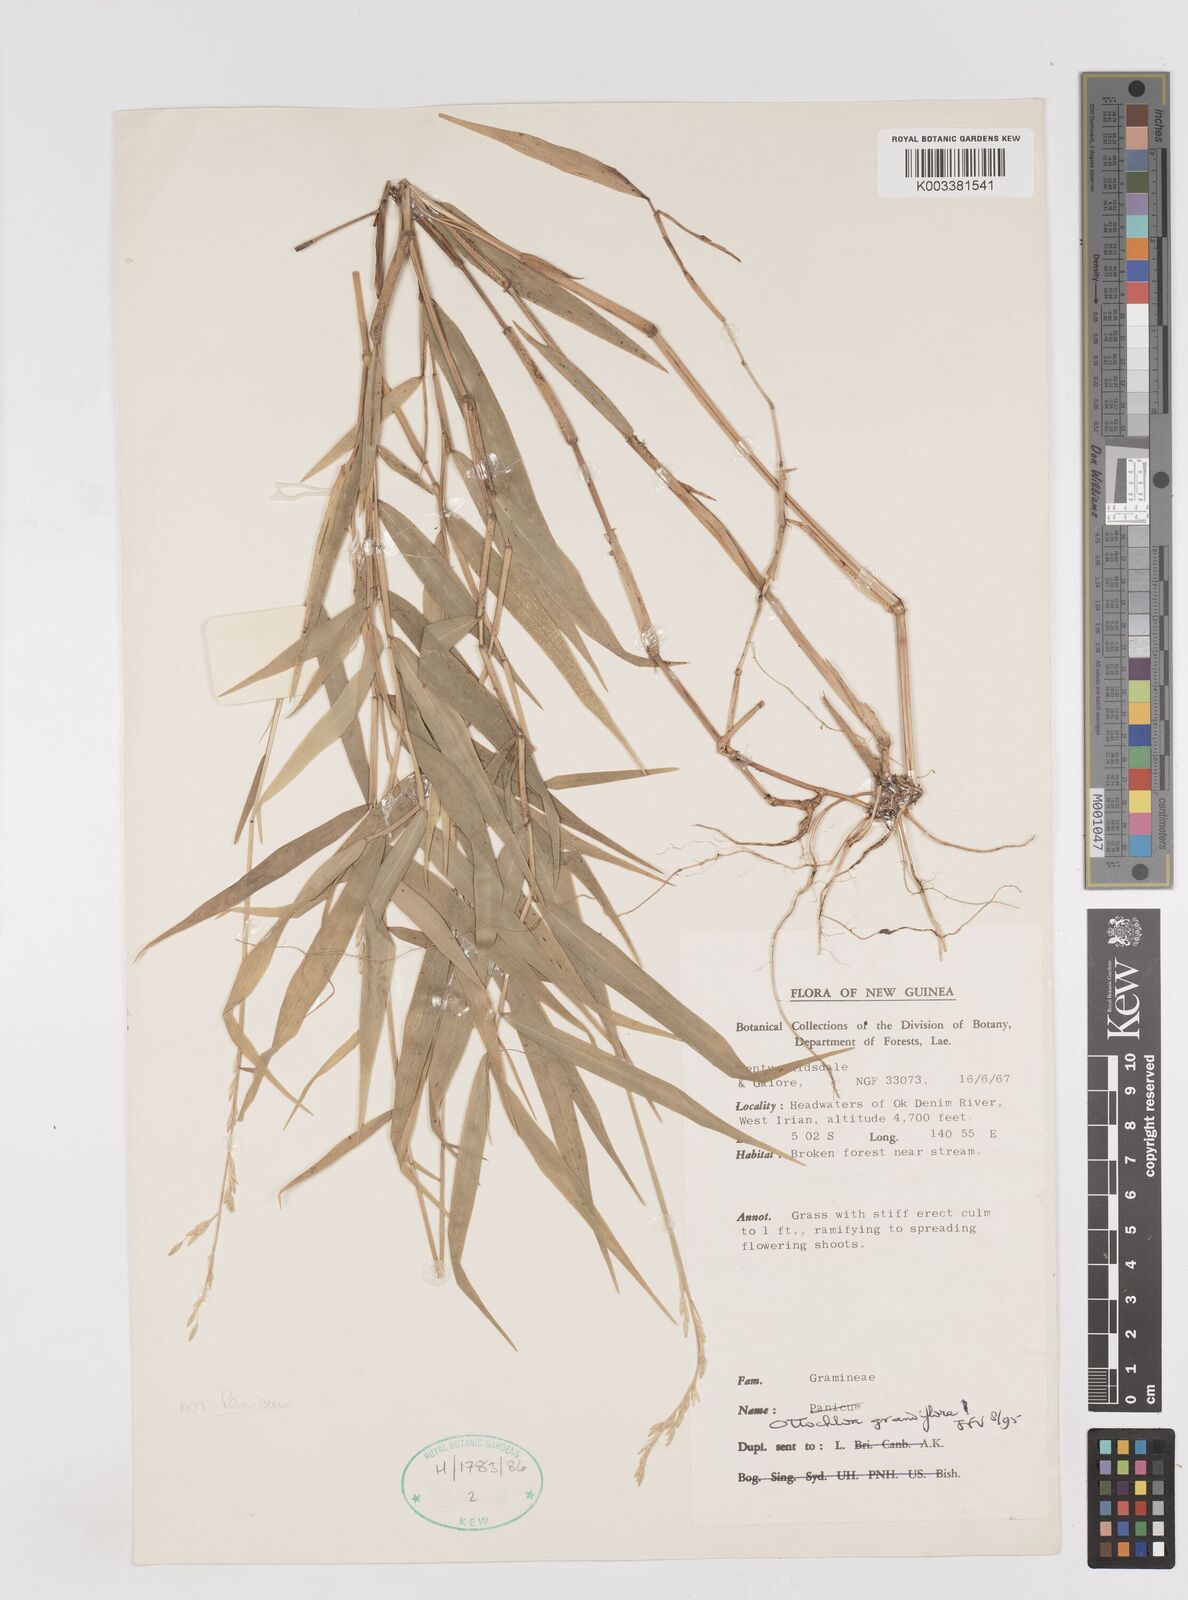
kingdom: Plantae
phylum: Tracheophyta
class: Liliopsida
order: Poales
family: Poaceae
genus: Ottochloa
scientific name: Ottochloa grandiflora
